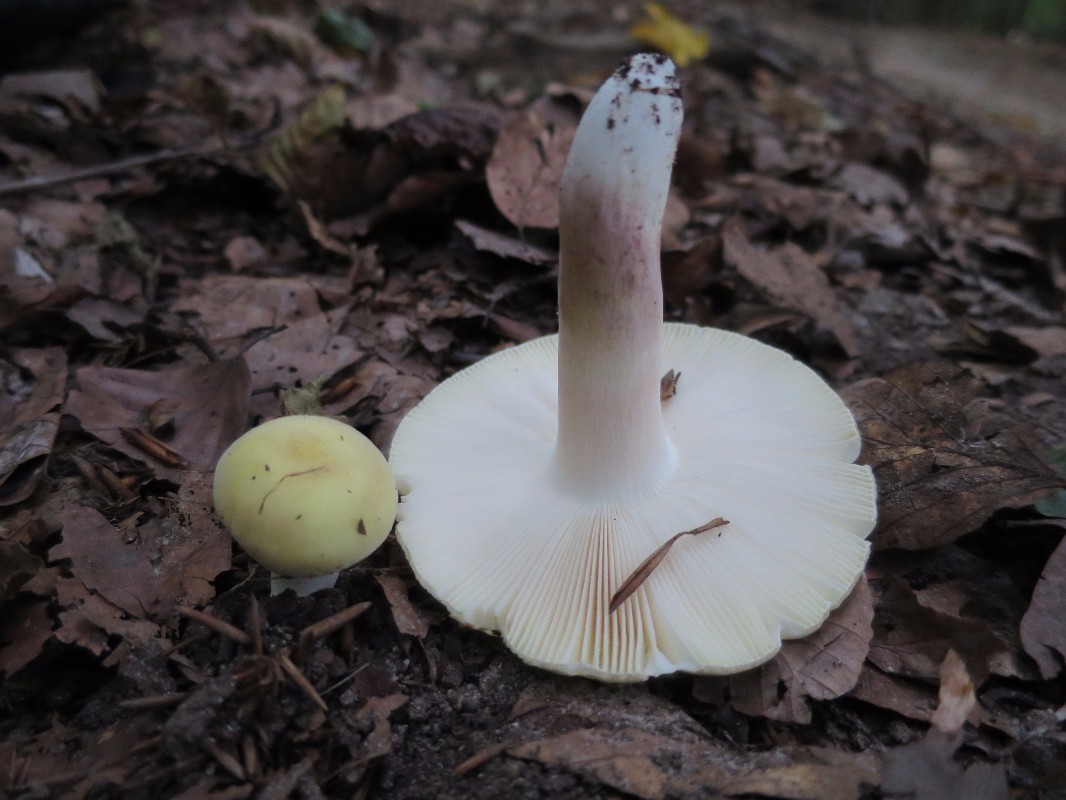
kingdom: Fungi
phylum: Basidiomycota
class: Agaricomycetes
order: Russulales
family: Russulaceae
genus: Russula
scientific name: Russula violeipes
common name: ferskengul skørhat
